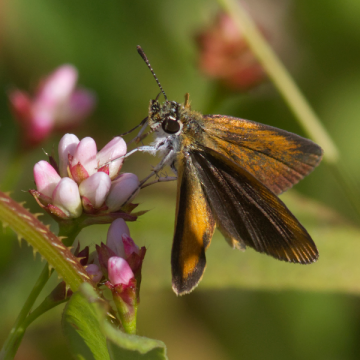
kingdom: Animalia
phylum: Arthropoda
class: Insecta
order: Lepidoptera
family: Hesperiidae
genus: Ancyloxypha
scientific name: Ancyloxypha numitor
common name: Least Skipper
